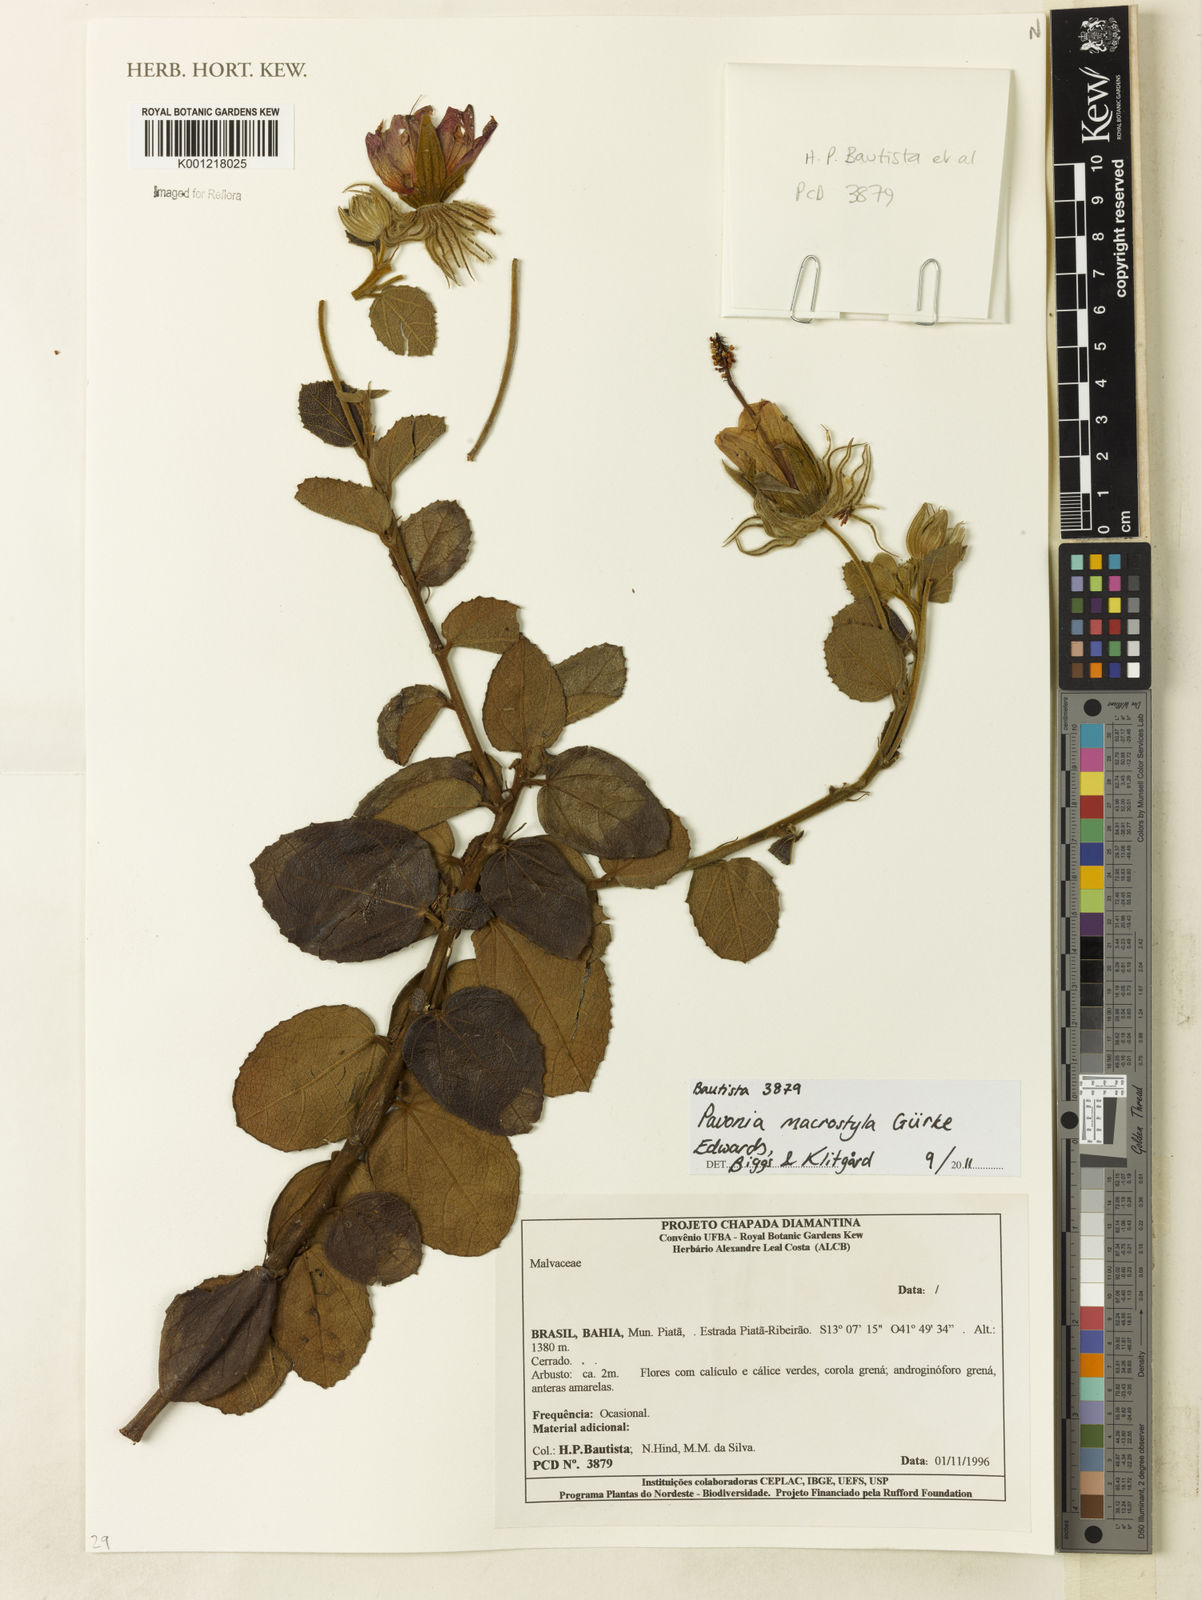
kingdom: Plantae
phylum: Tracheophyta
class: Magnoliopsida
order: Malvales
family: Malvaceae
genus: Pavonia
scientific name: Pavonia
